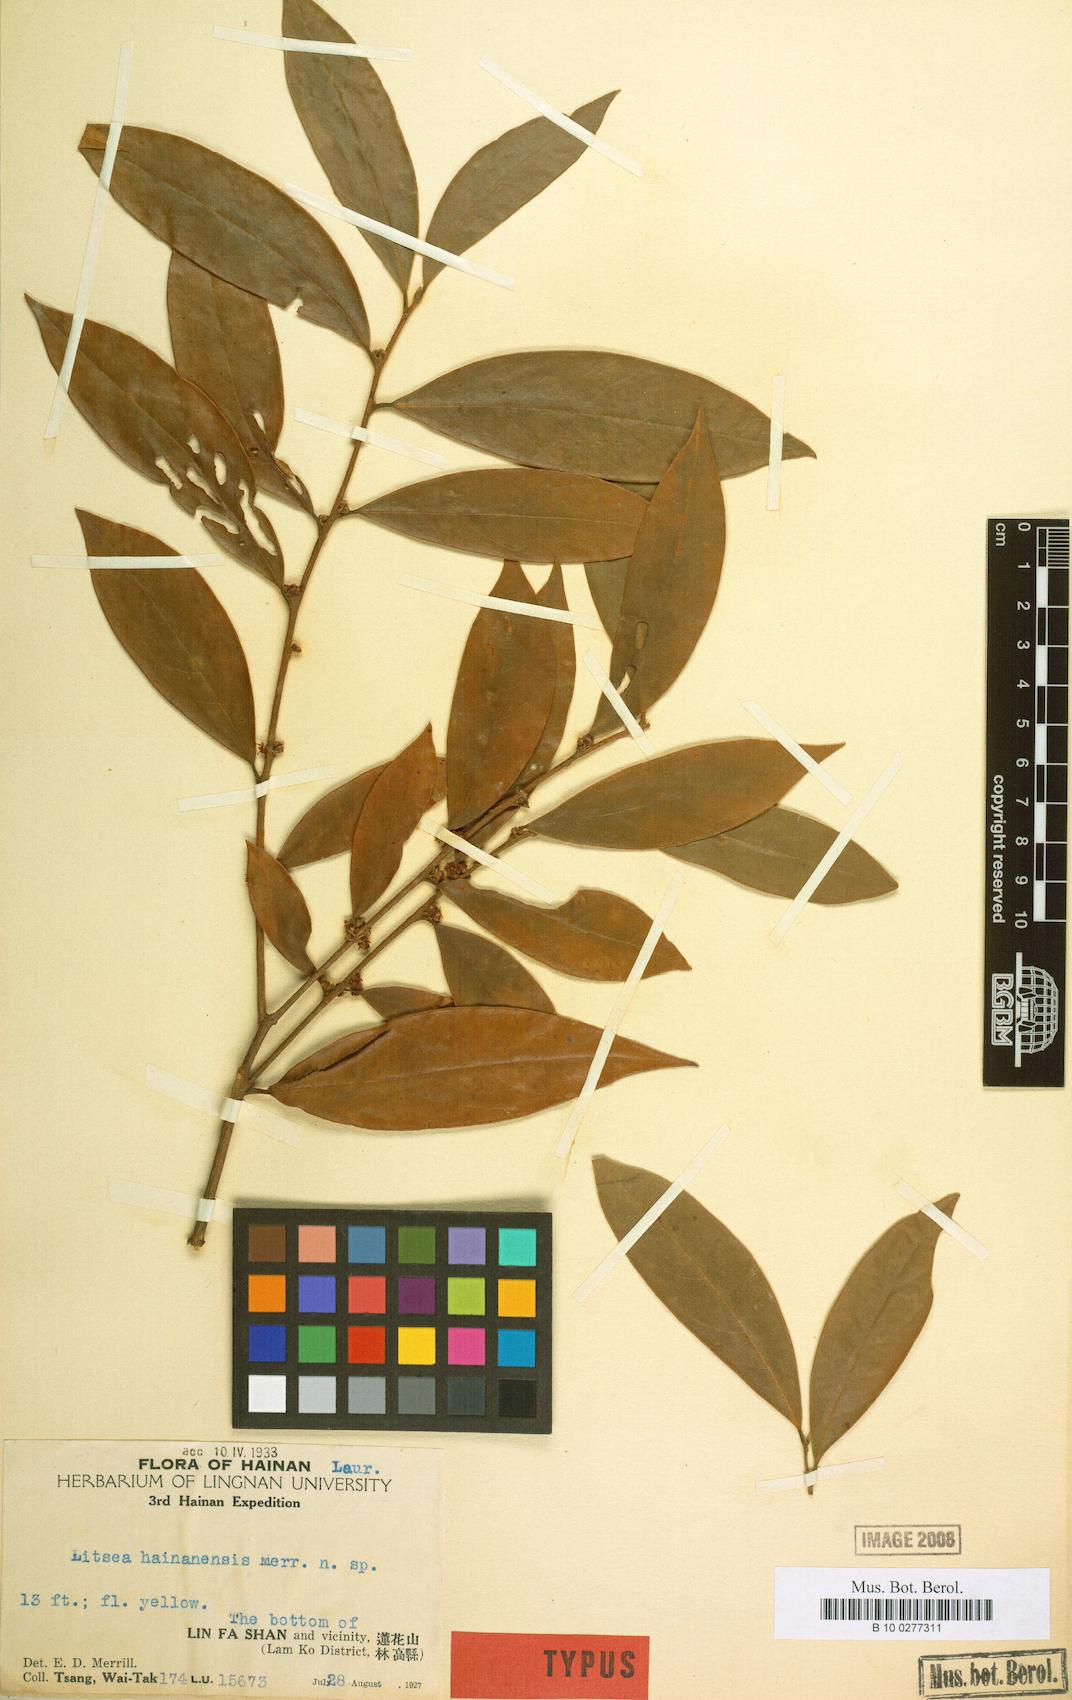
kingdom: Plantae
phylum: Tracheophyta
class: Magnoliopsida
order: Laurales
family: Lauraceae
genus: Litsea
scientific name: Litsea
